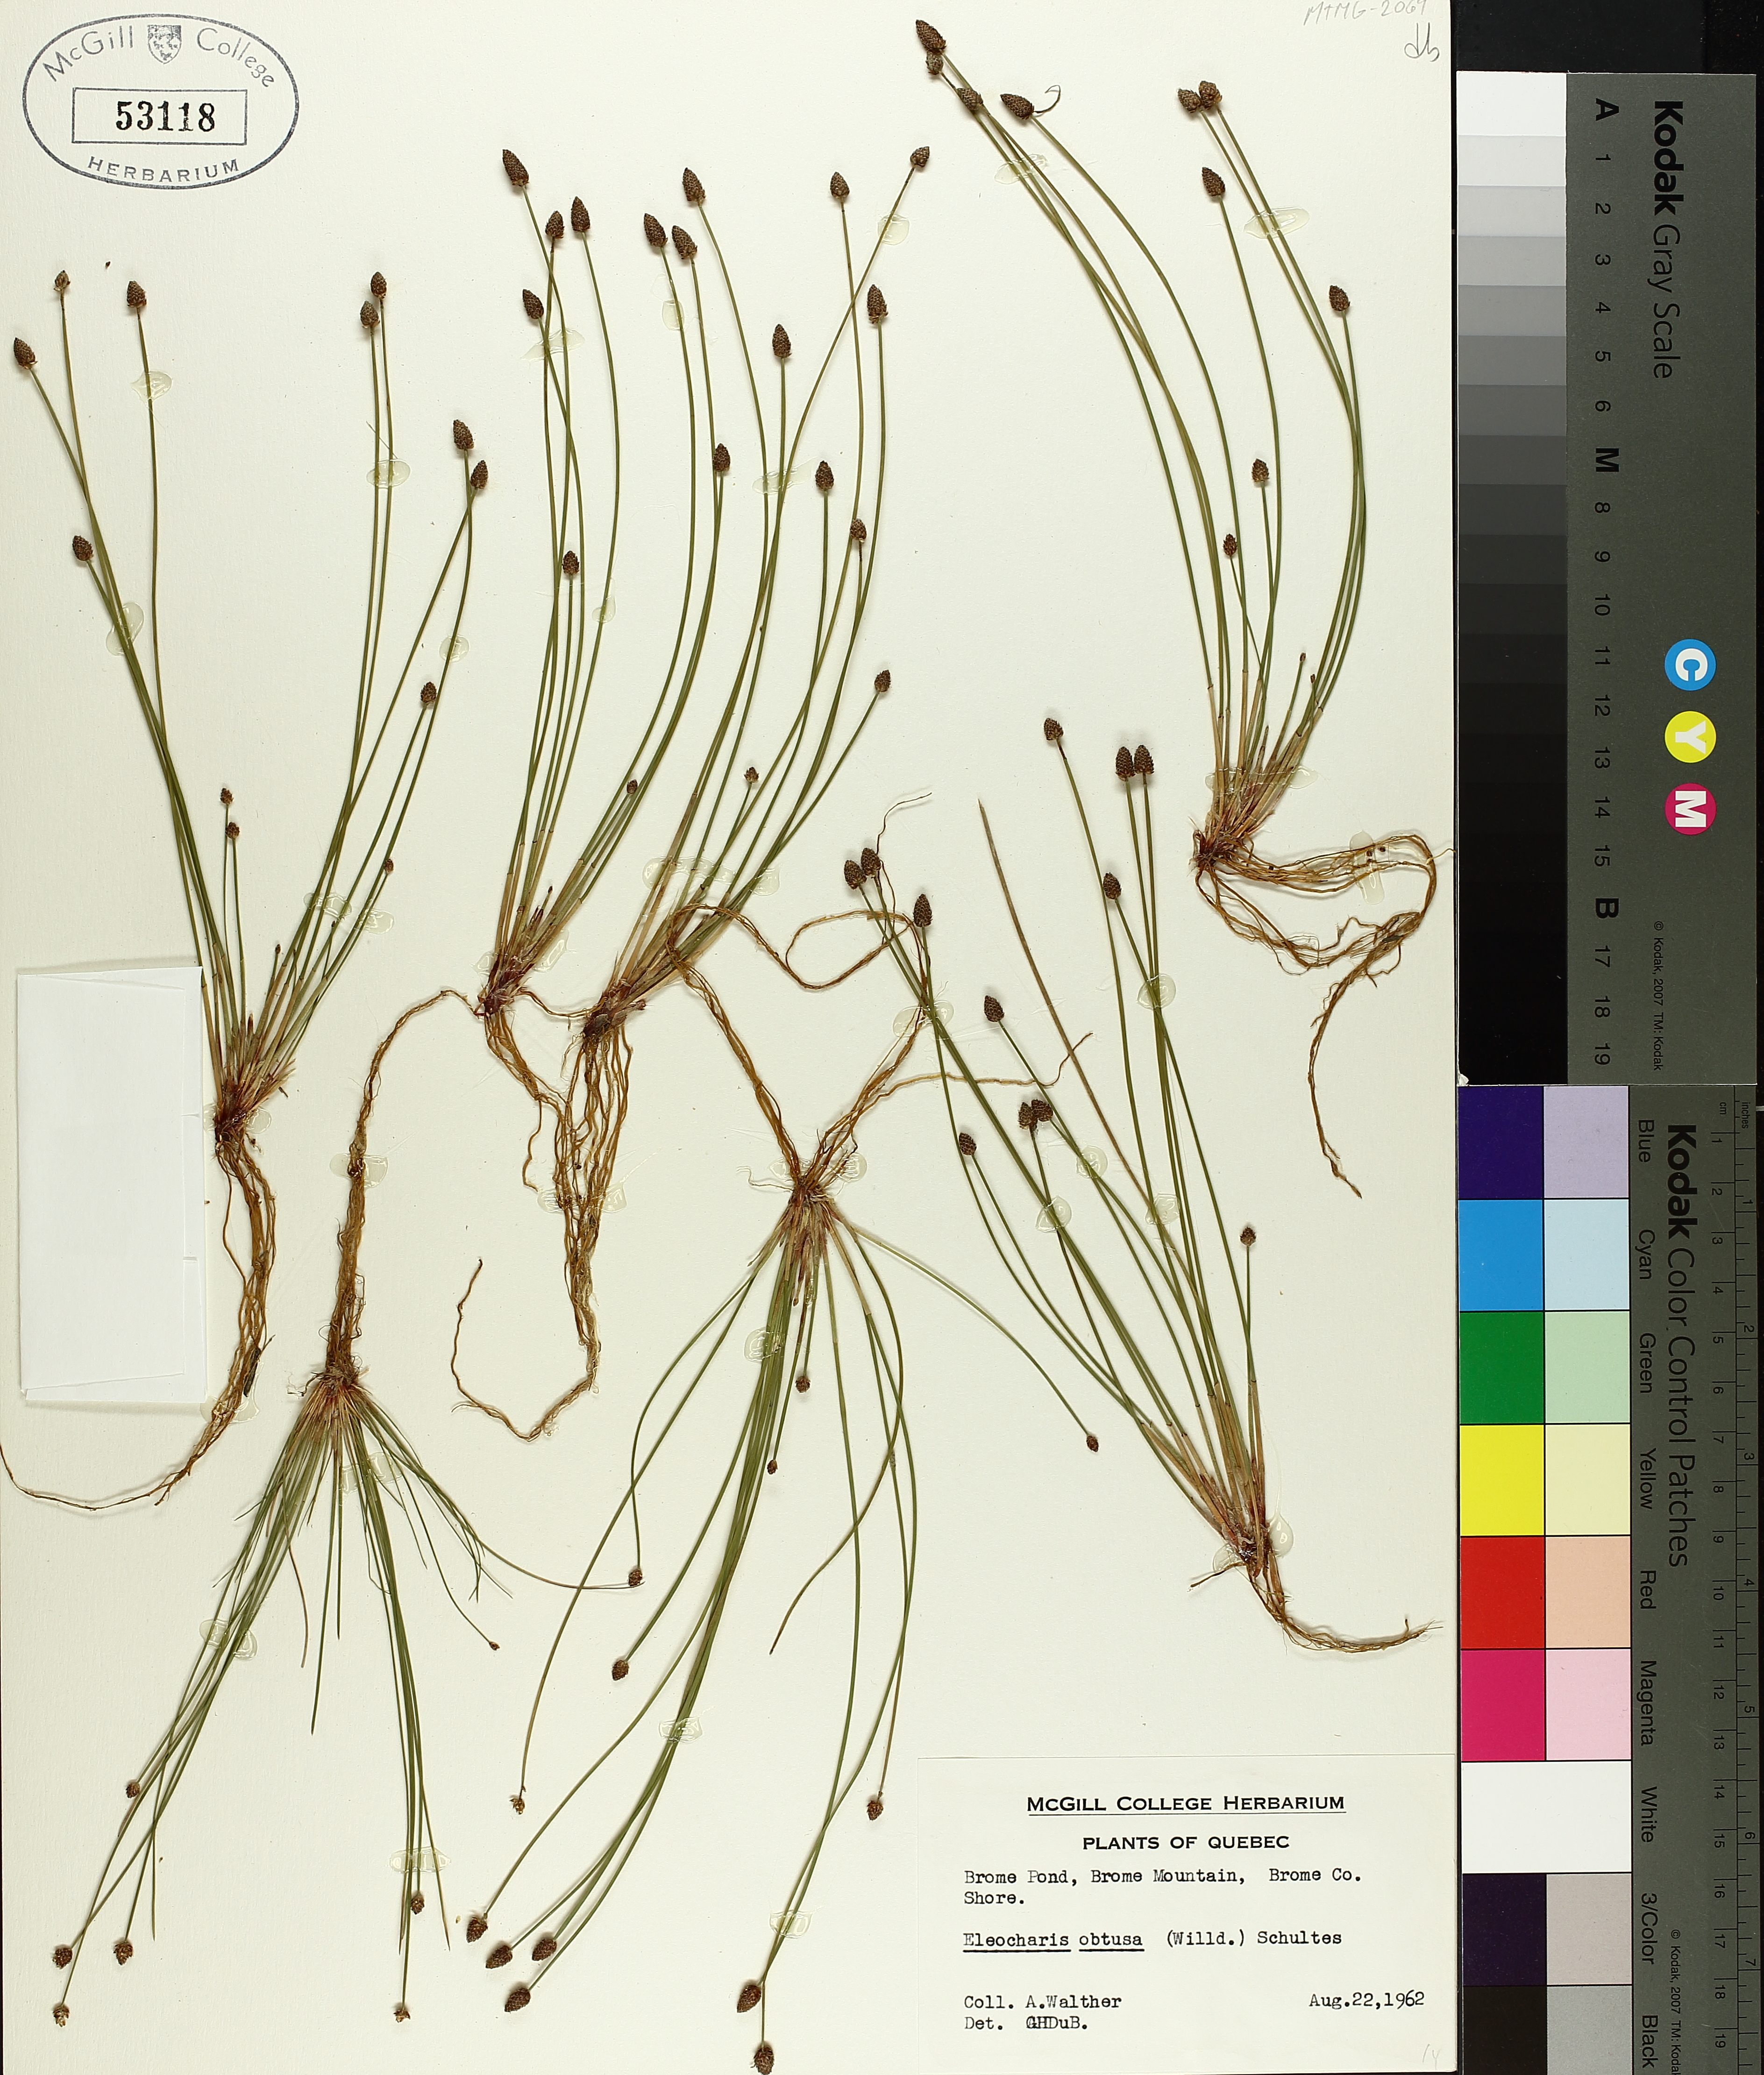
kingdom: Plantae
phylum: Tracheophyta
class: Liliopsida
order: Poales
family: Cyperaceae
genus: Eleocharis
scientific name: Eleocharis obtusa
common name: Blunt spikerush
